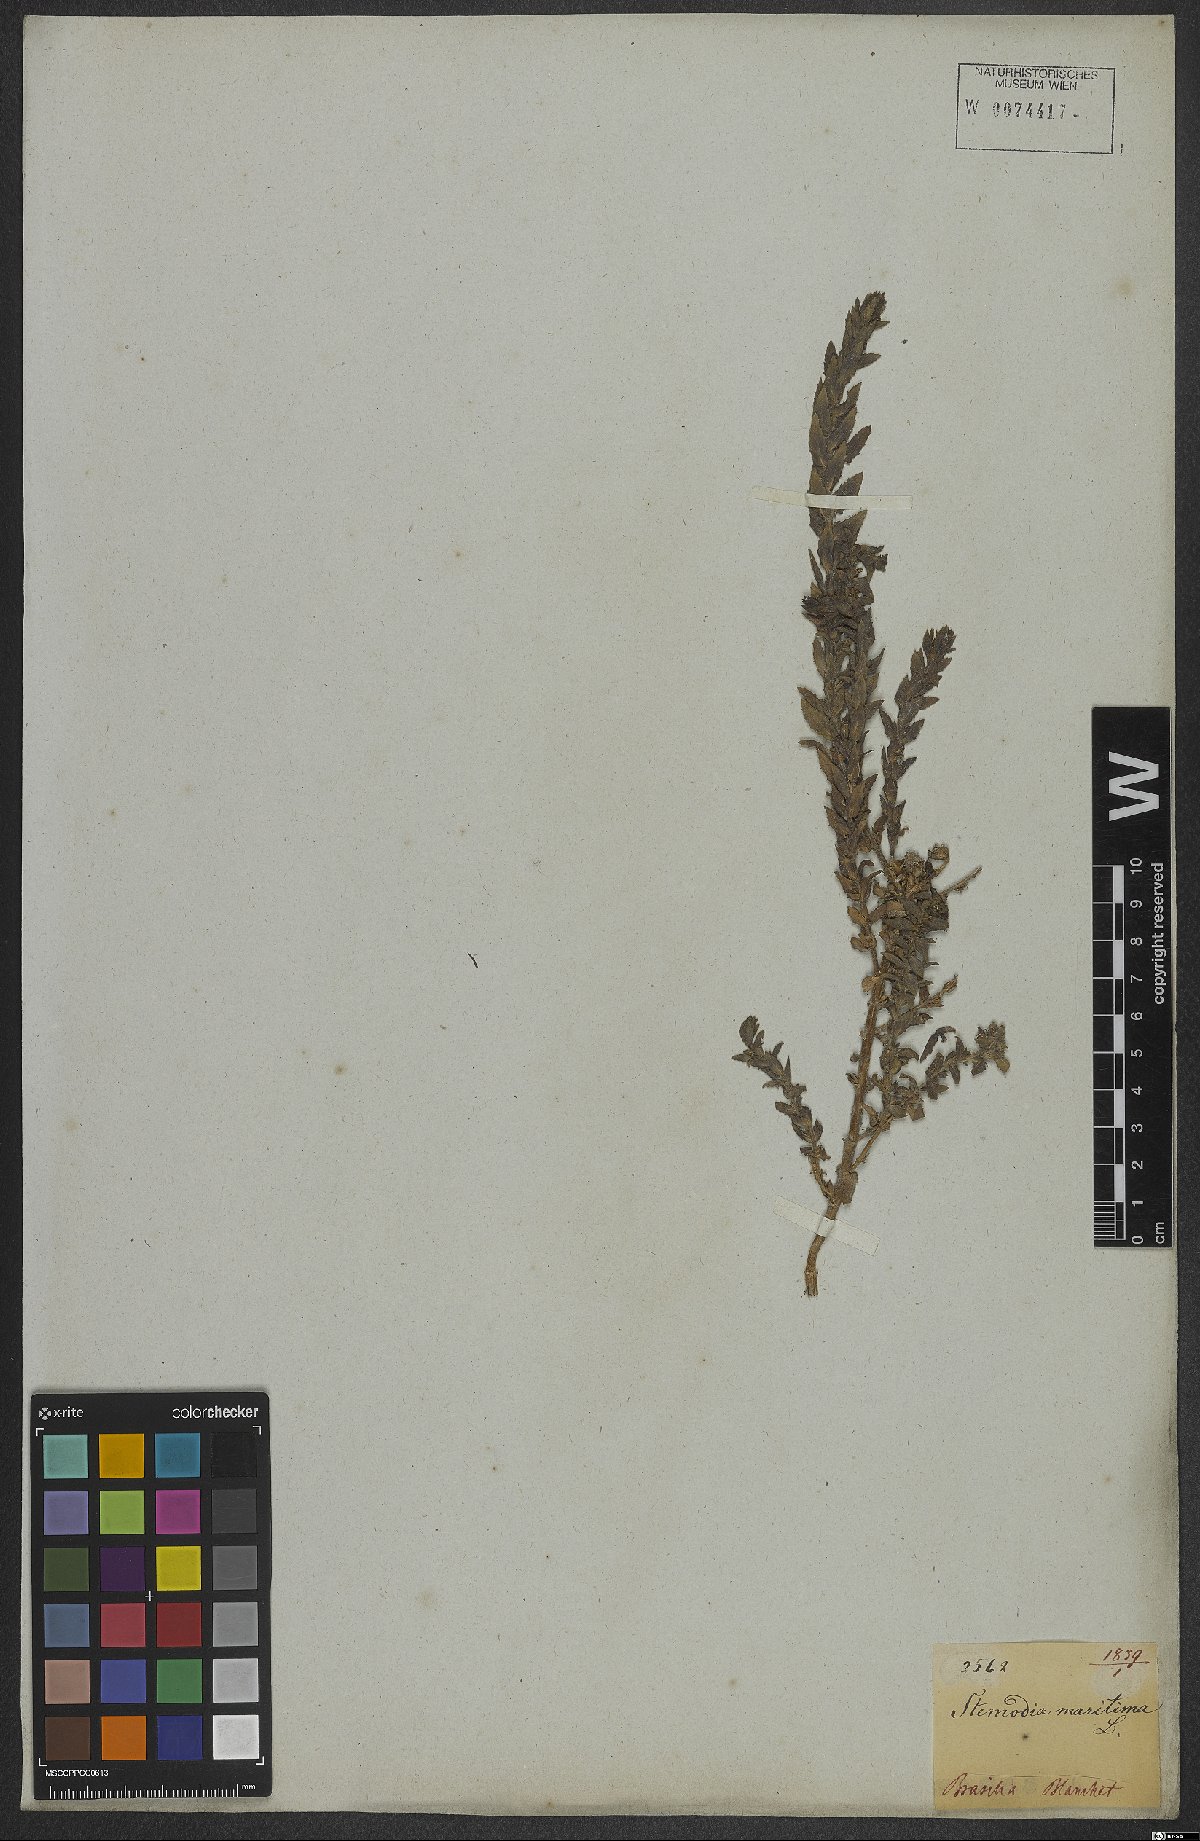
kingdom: Plantae
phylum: Tracheophyta
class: Magnoliopsida
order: Lamiales
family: Plantaginaceae
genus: Stemodia
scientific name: Stemodia maritima
